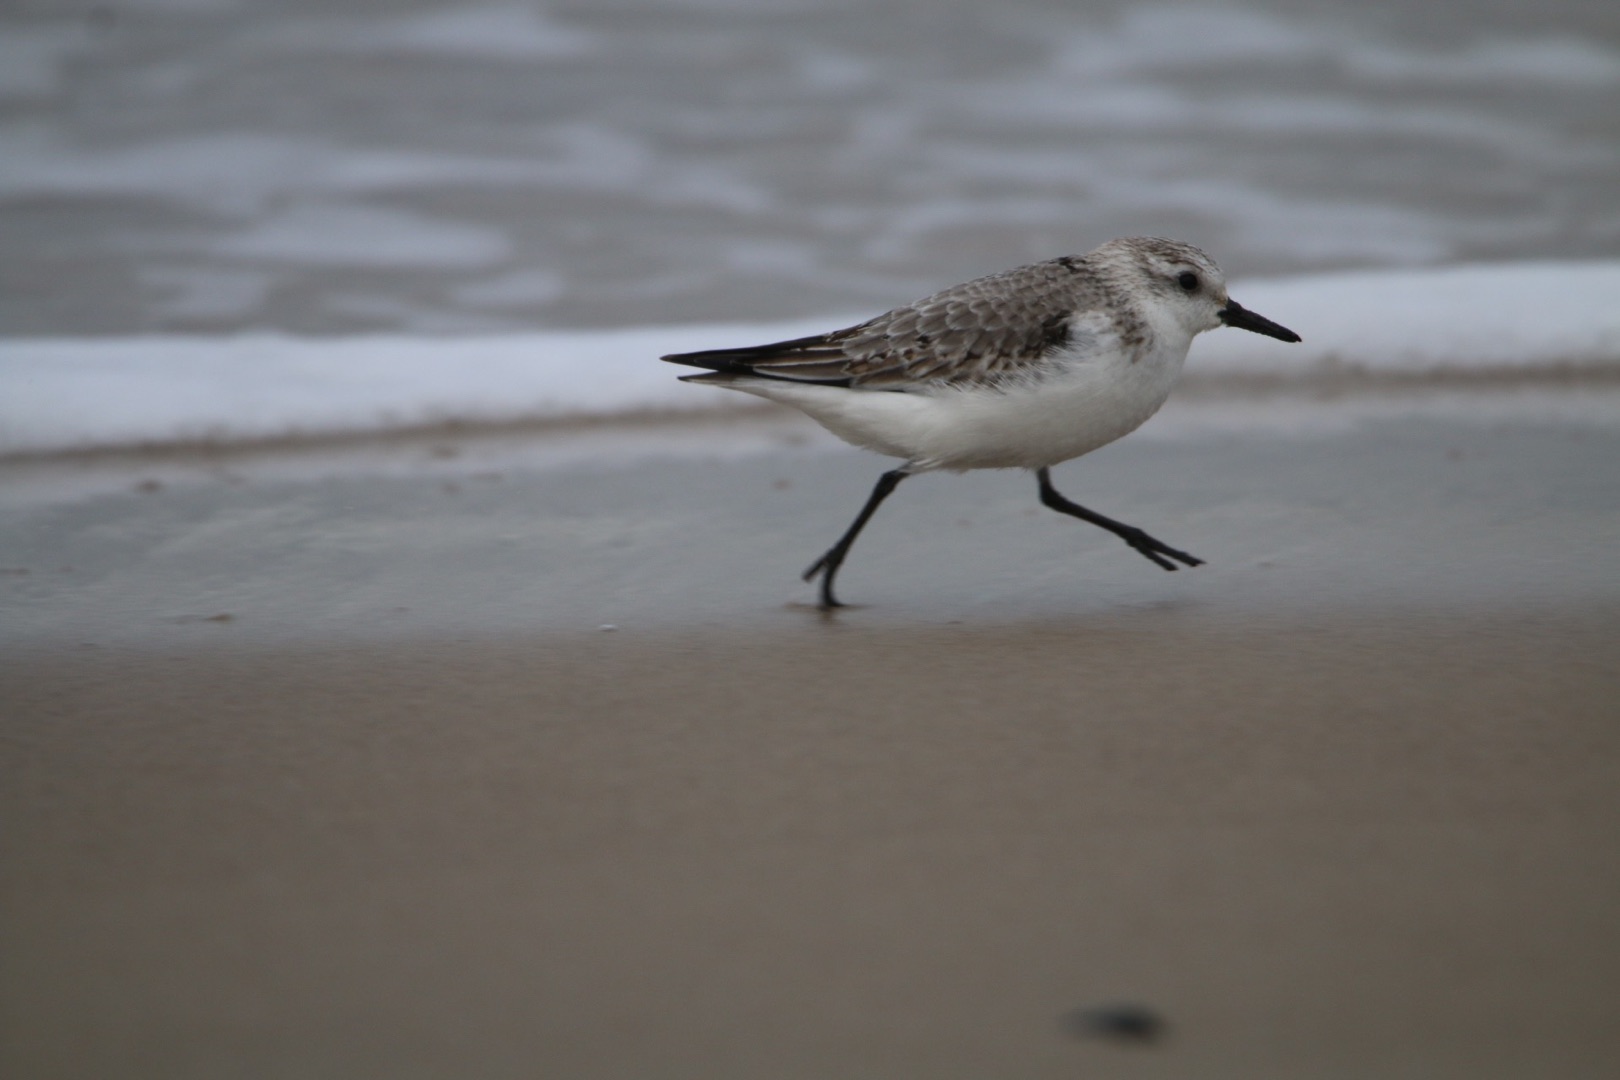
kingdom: Animalia
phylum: Chordata
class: Aves
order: Charadriiformes
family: Scolopacidae
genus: Calidris
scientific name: Calidris alba
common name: Sandløber
